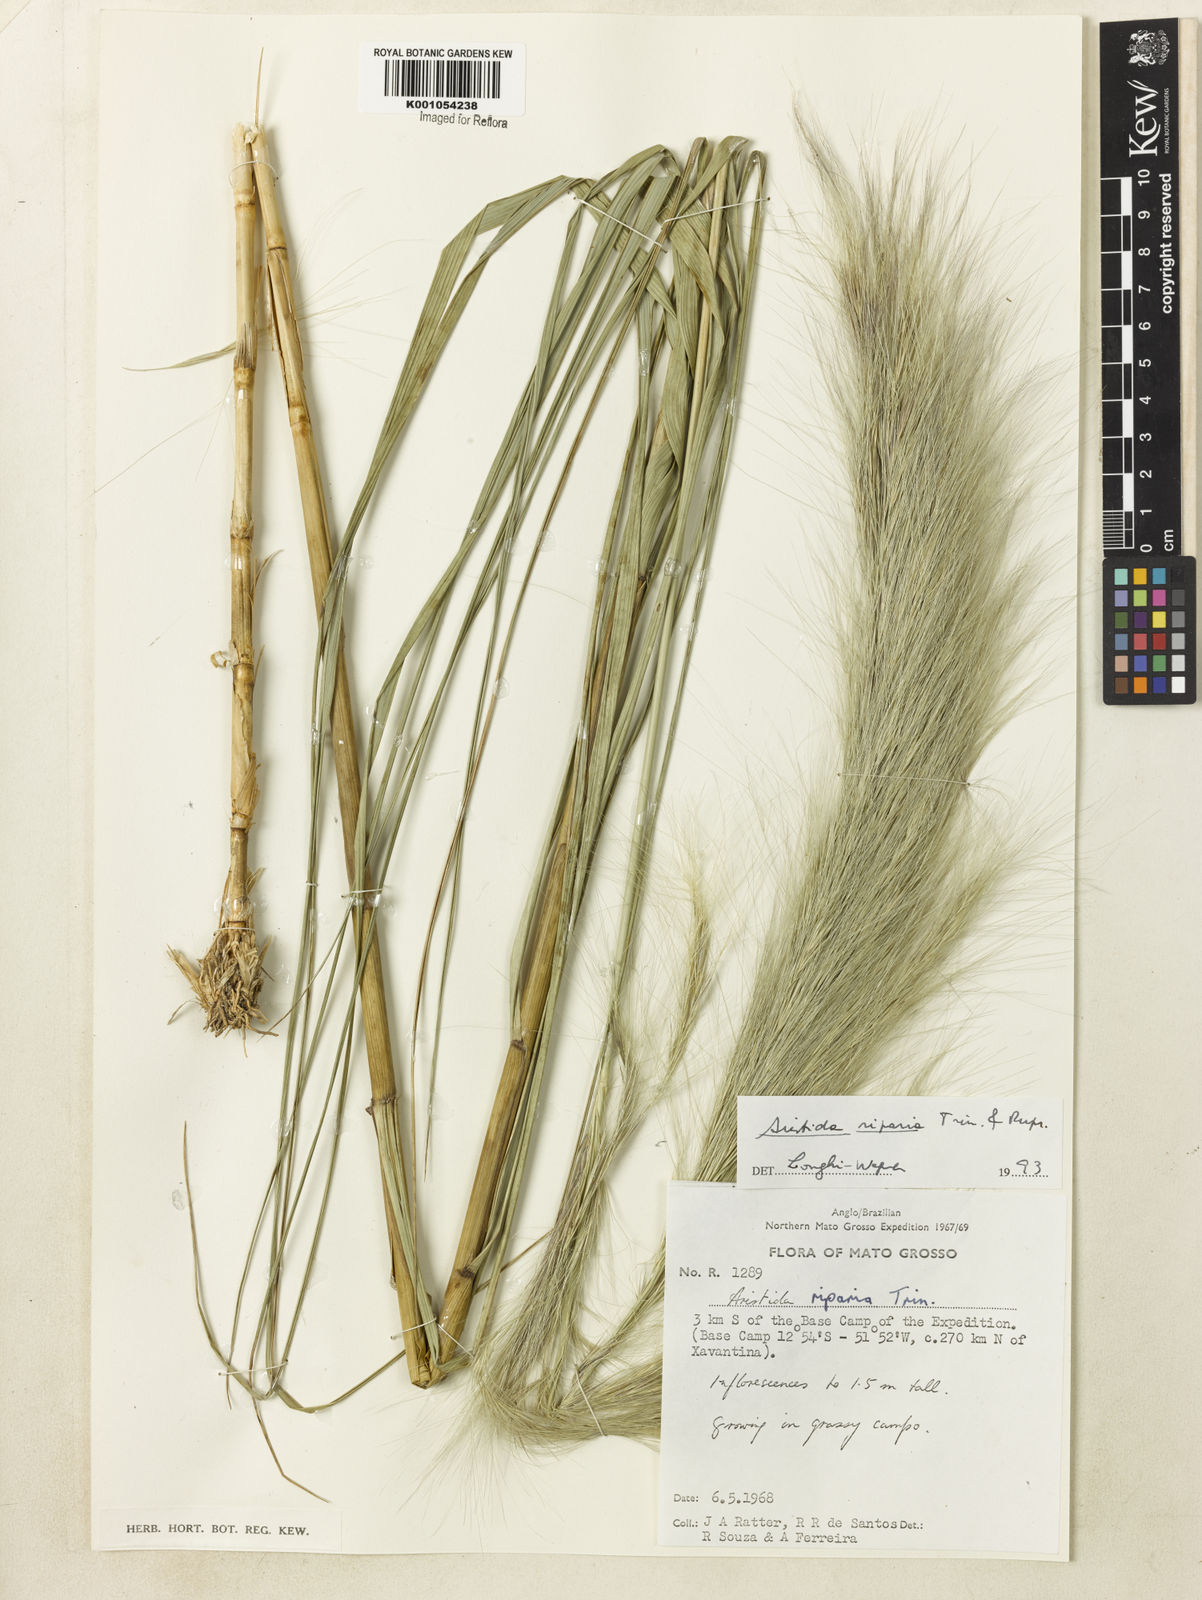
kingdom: Plantae
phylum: Tracheophyta
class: Liliopsida
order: Poales
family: Poaceae
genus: Aristida
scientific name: Aristida riparia
